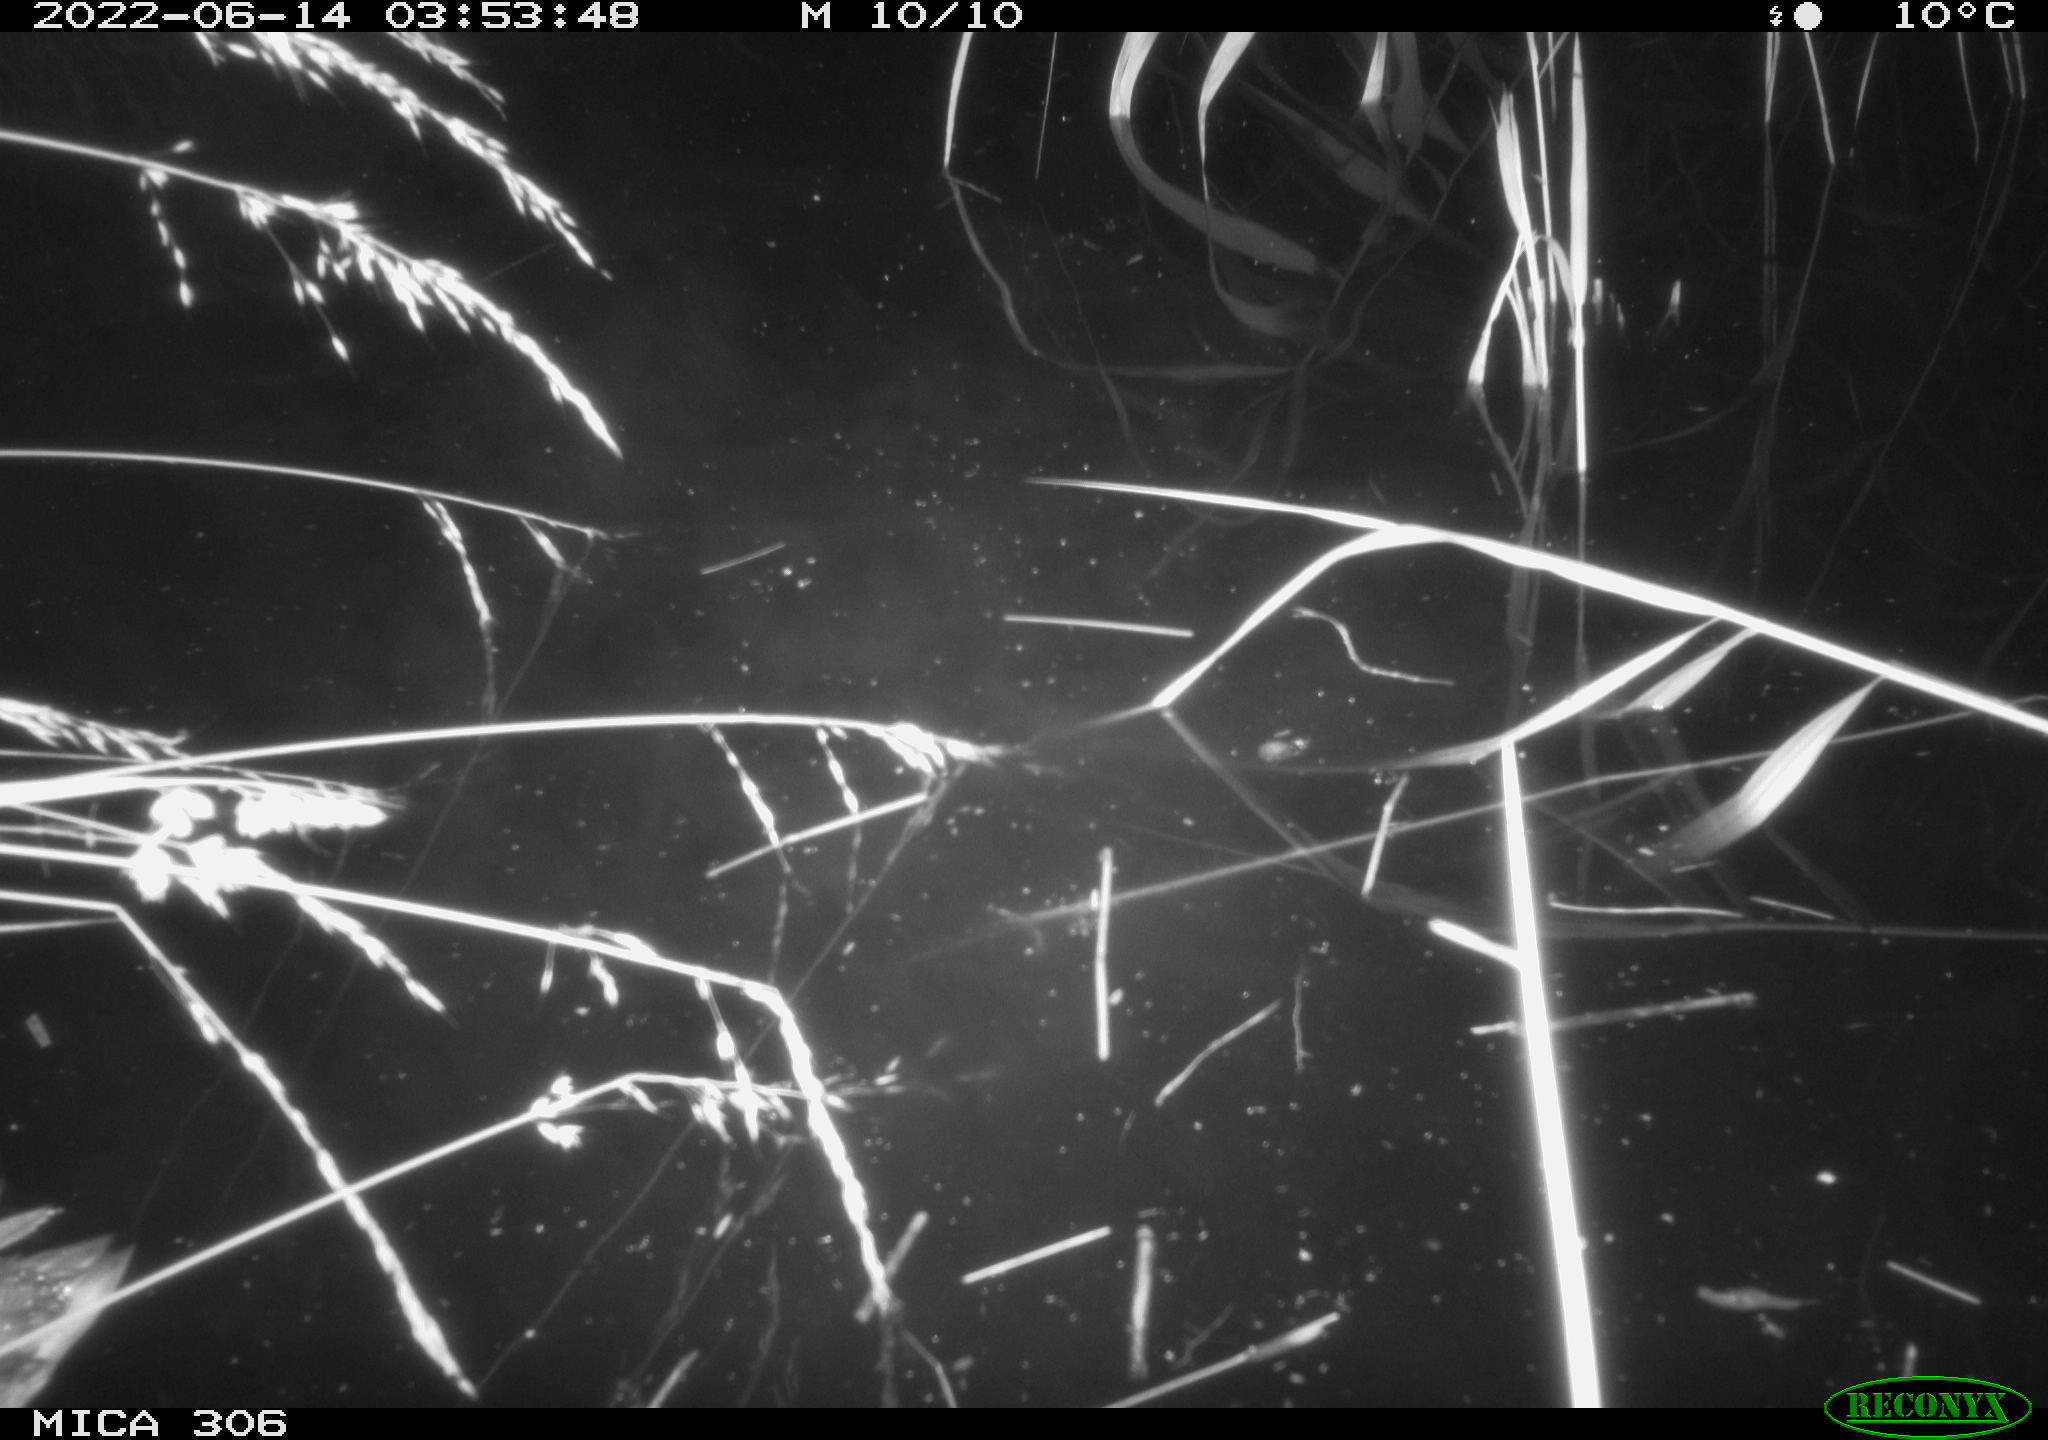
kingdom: Animalia
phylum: Chordata
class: Aves
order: Anseriformes
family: Anatidae
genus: Anas
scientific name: Anas platyrhynchos
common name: Mallard
